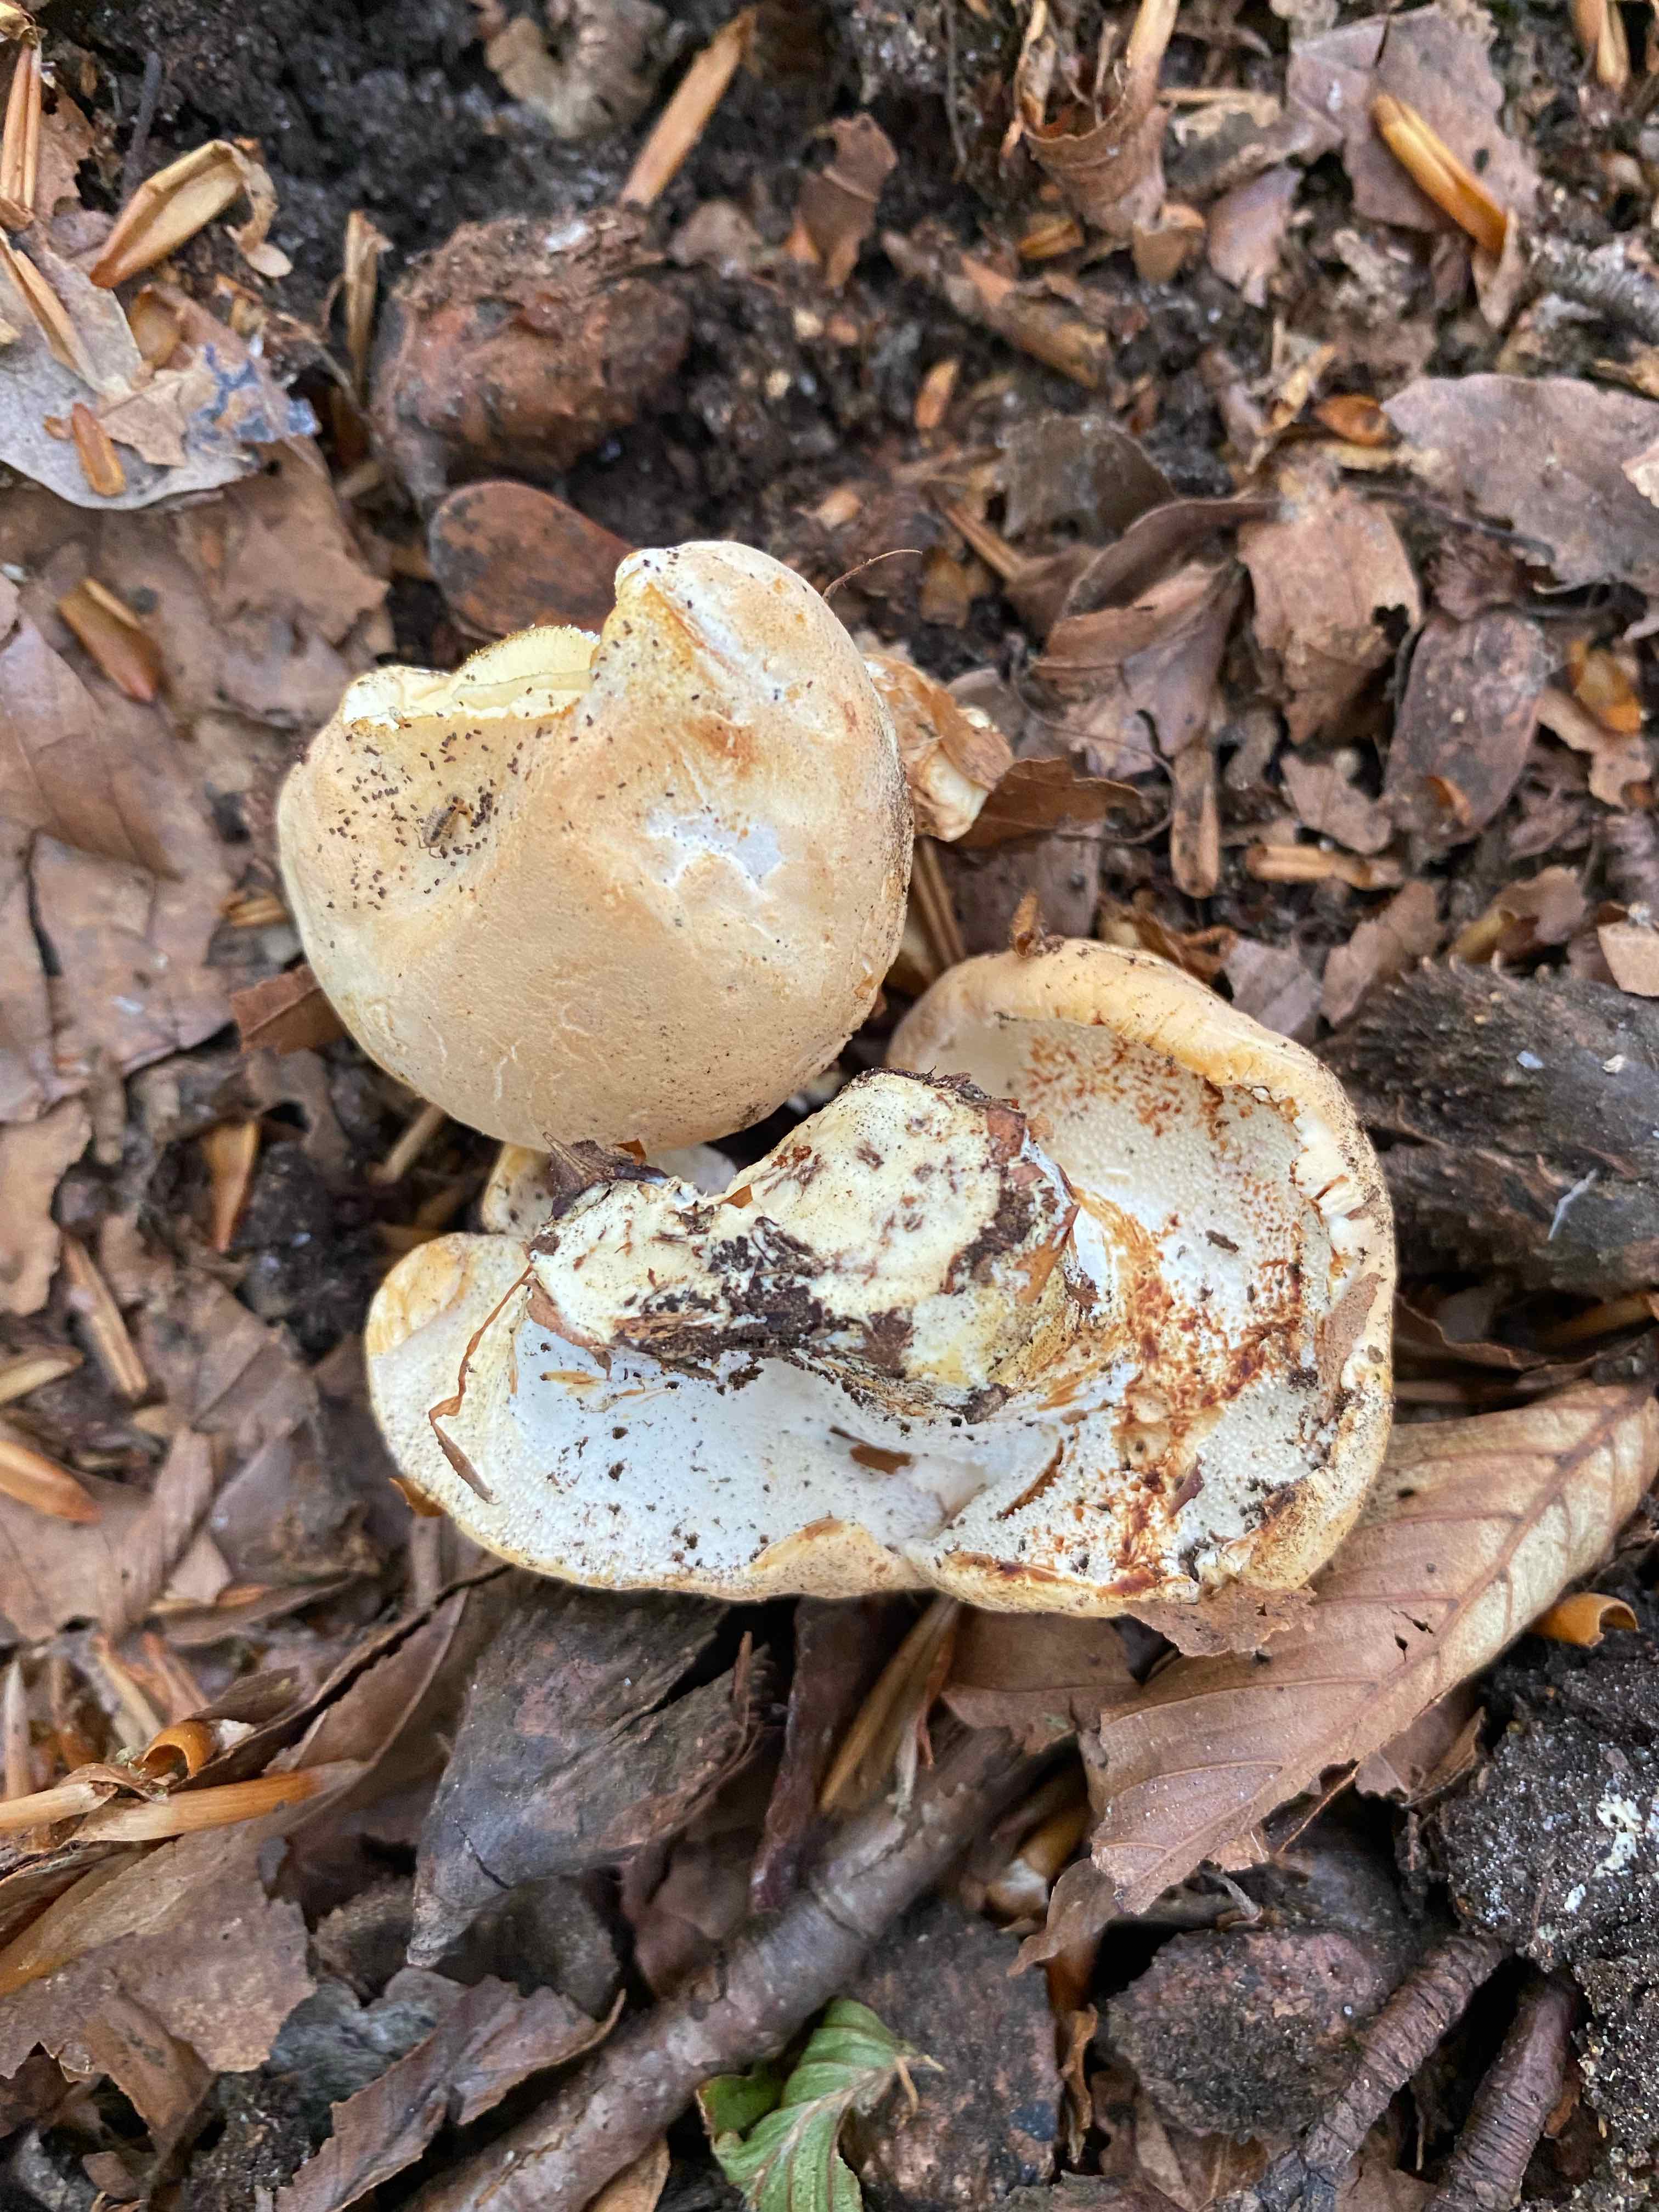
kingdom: Fungi
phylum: Basidiomycota
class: Agaricomycetes
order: Cantharellales
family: Hydnaceae
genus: Hydnum
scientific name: Hydnum
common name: pigsvamp
